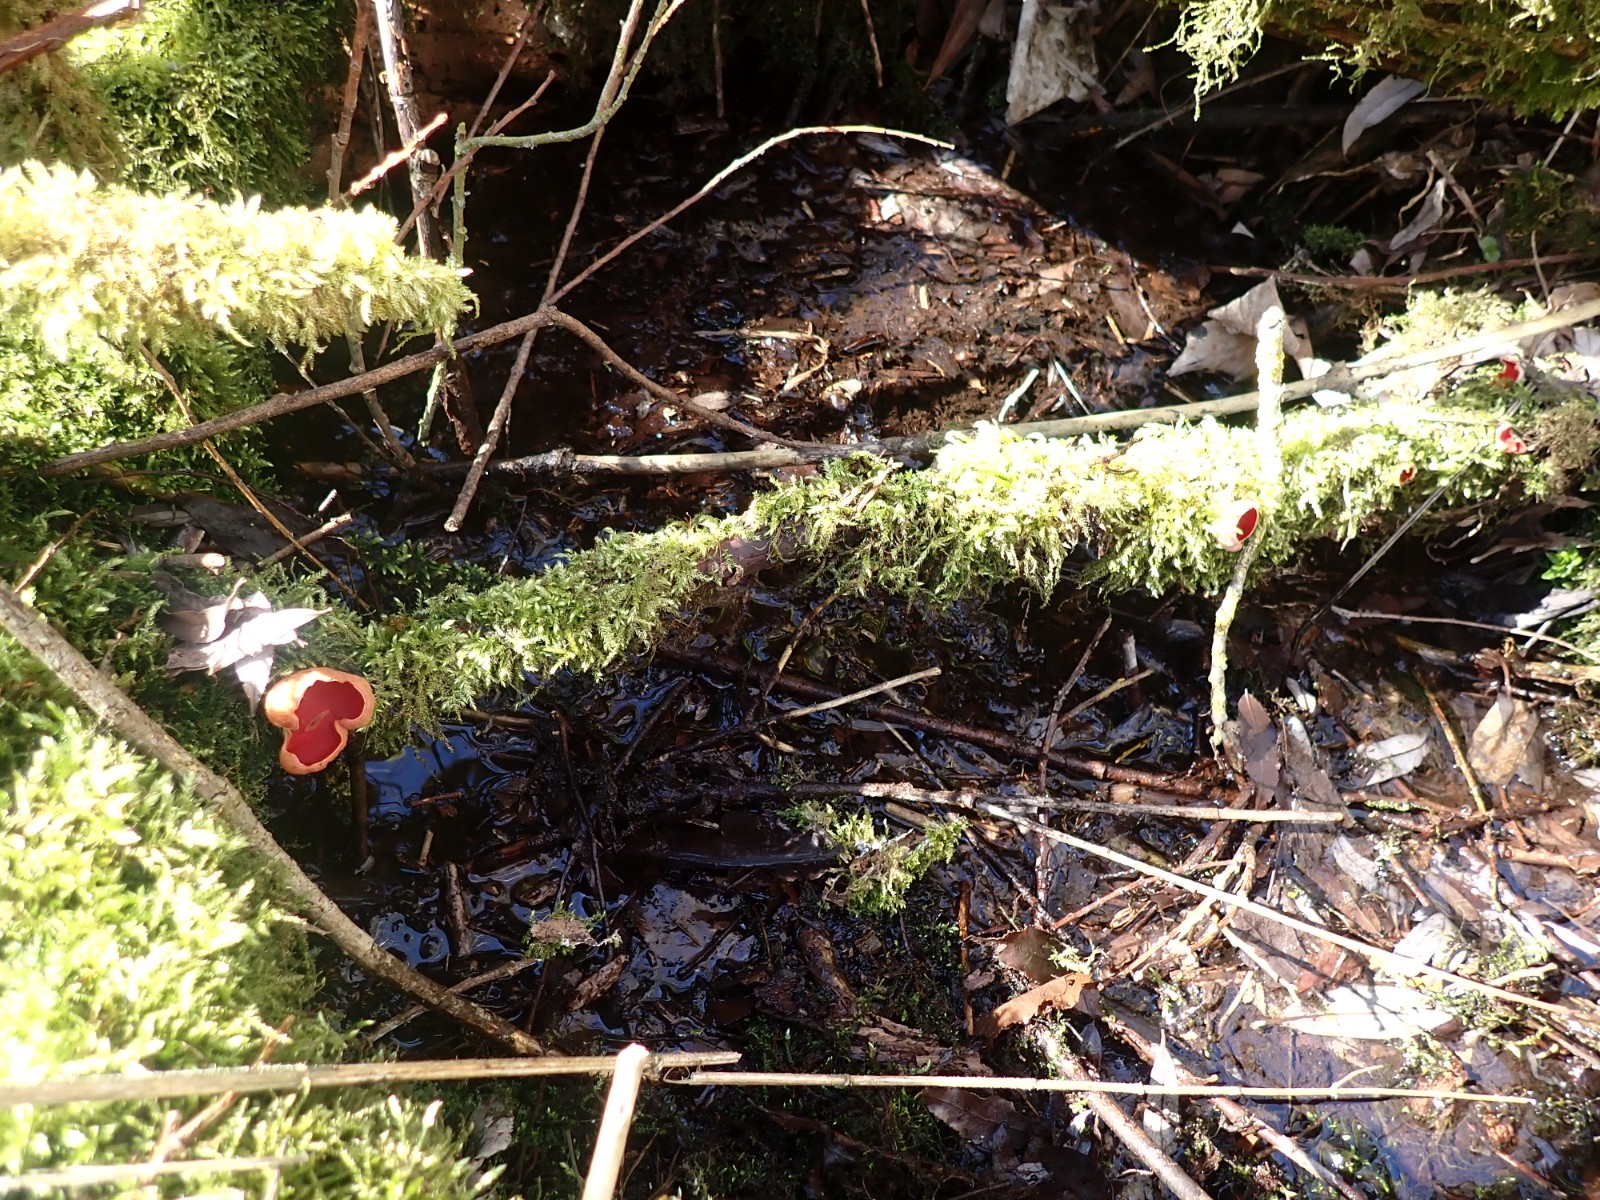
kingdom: Fungi
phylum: Ascomycota
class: Pezizomycetes
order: Pezizales
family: Sarcoscyphaceae
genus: Sarcoscypha
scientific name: Sarcoscypha austriaca
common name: krølhåret pragtbæger
